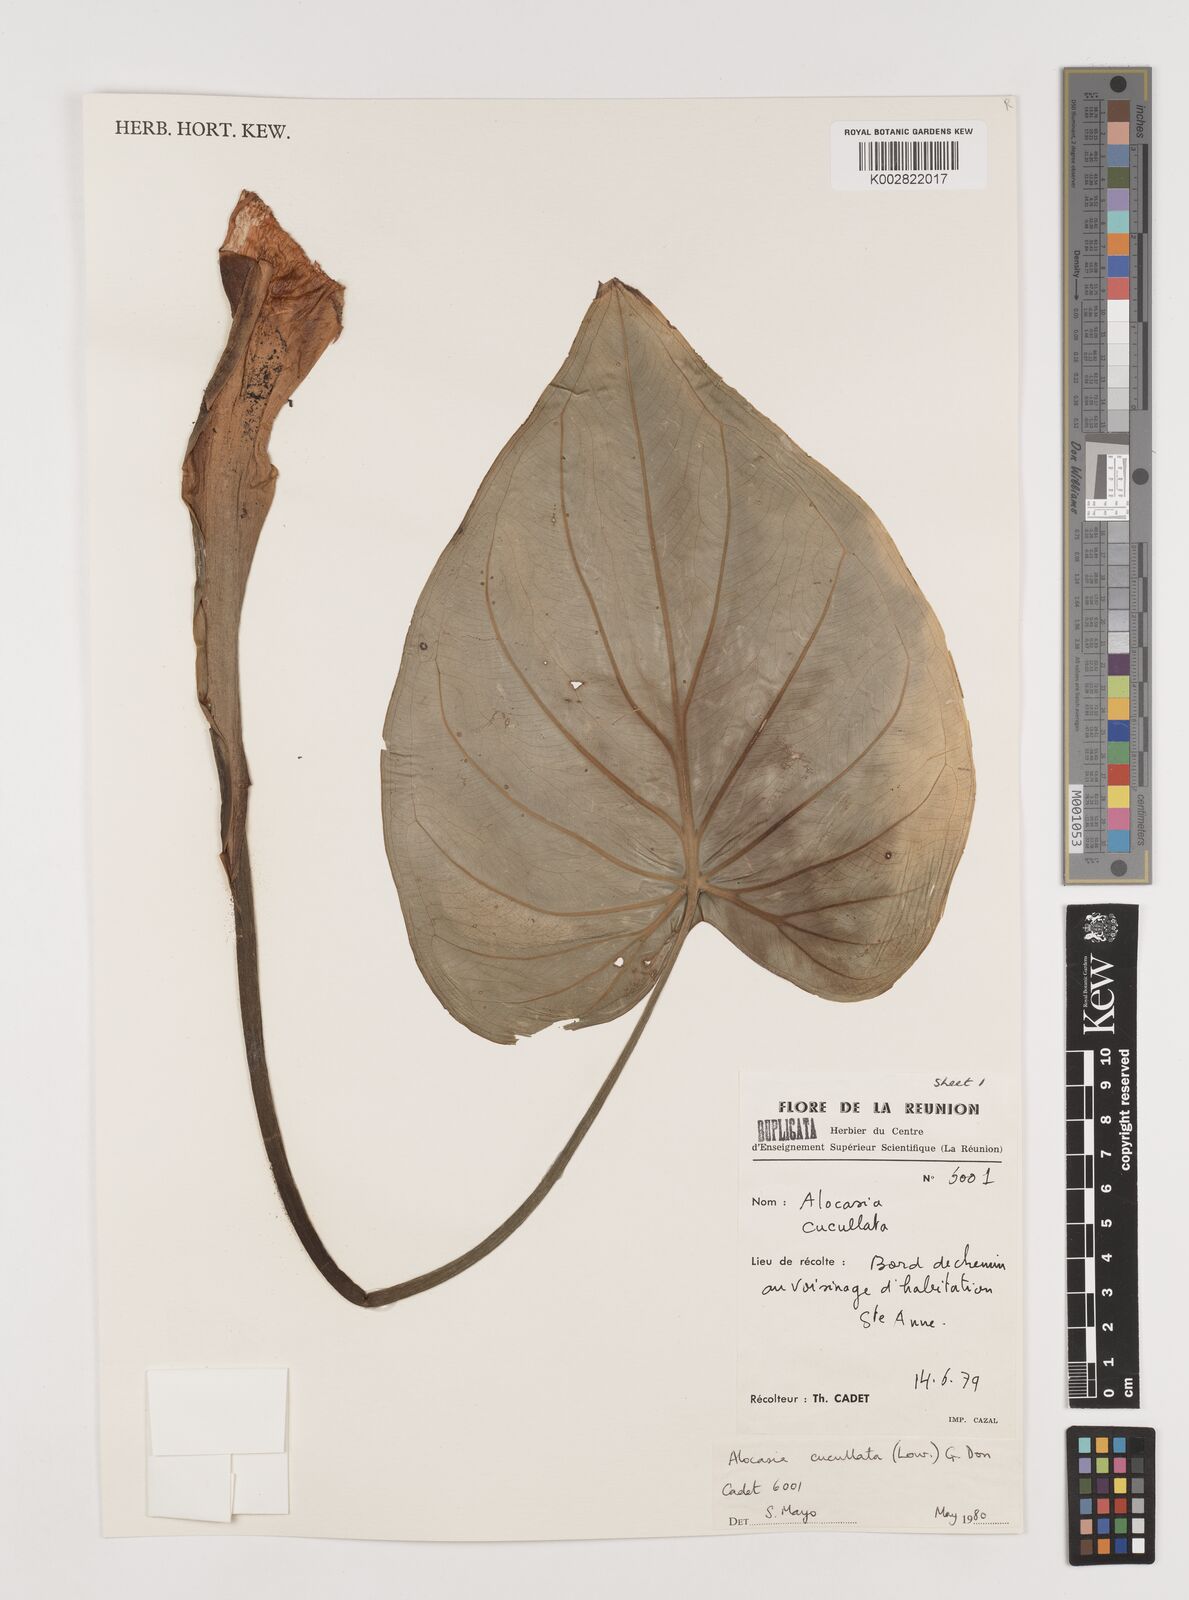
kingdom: Plantae
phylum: Tracheophyta
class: Liliopsida
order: Alismatales
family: Araceae
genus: Alocasia
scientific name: Alocasia cucullata
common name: Buddha's hand
